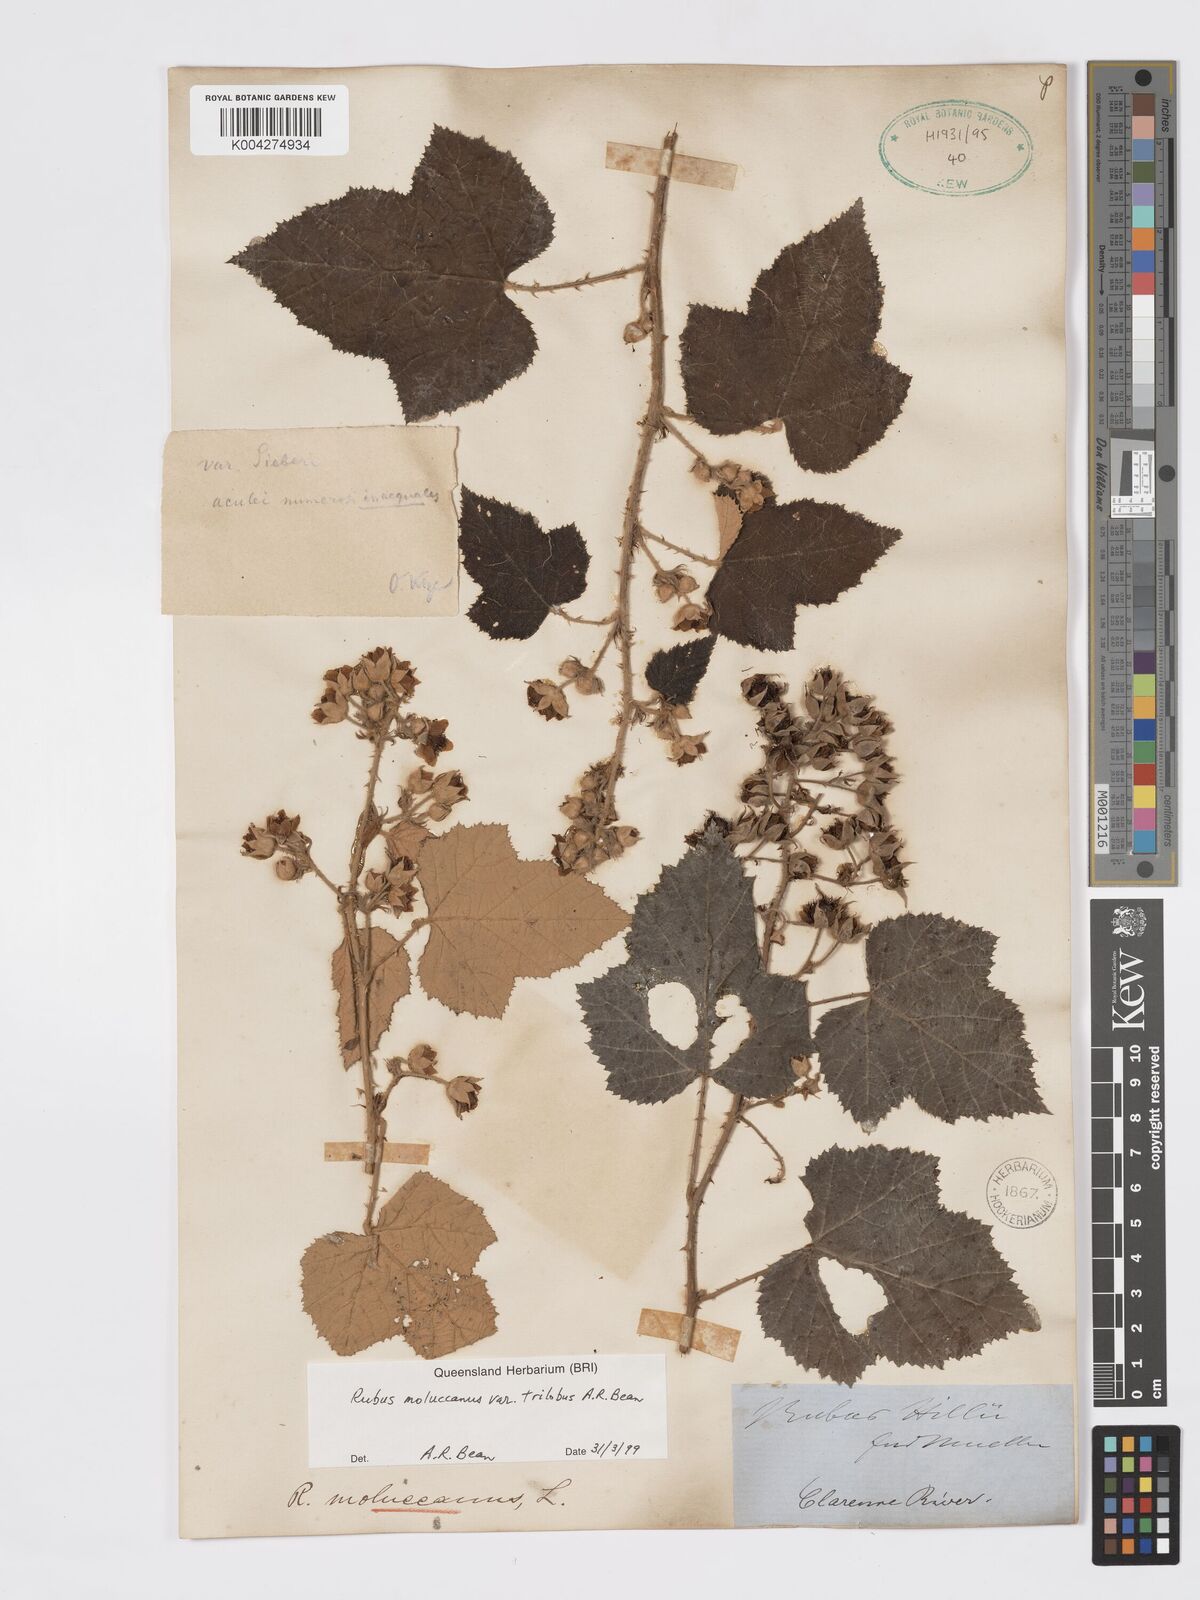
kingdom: Plantae
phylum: Tracheophyta
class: Magnoliopsida
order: Rosales
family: Rosaceae
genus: Rubus
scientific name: Rubus moluccanus
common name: Wild raspberry
